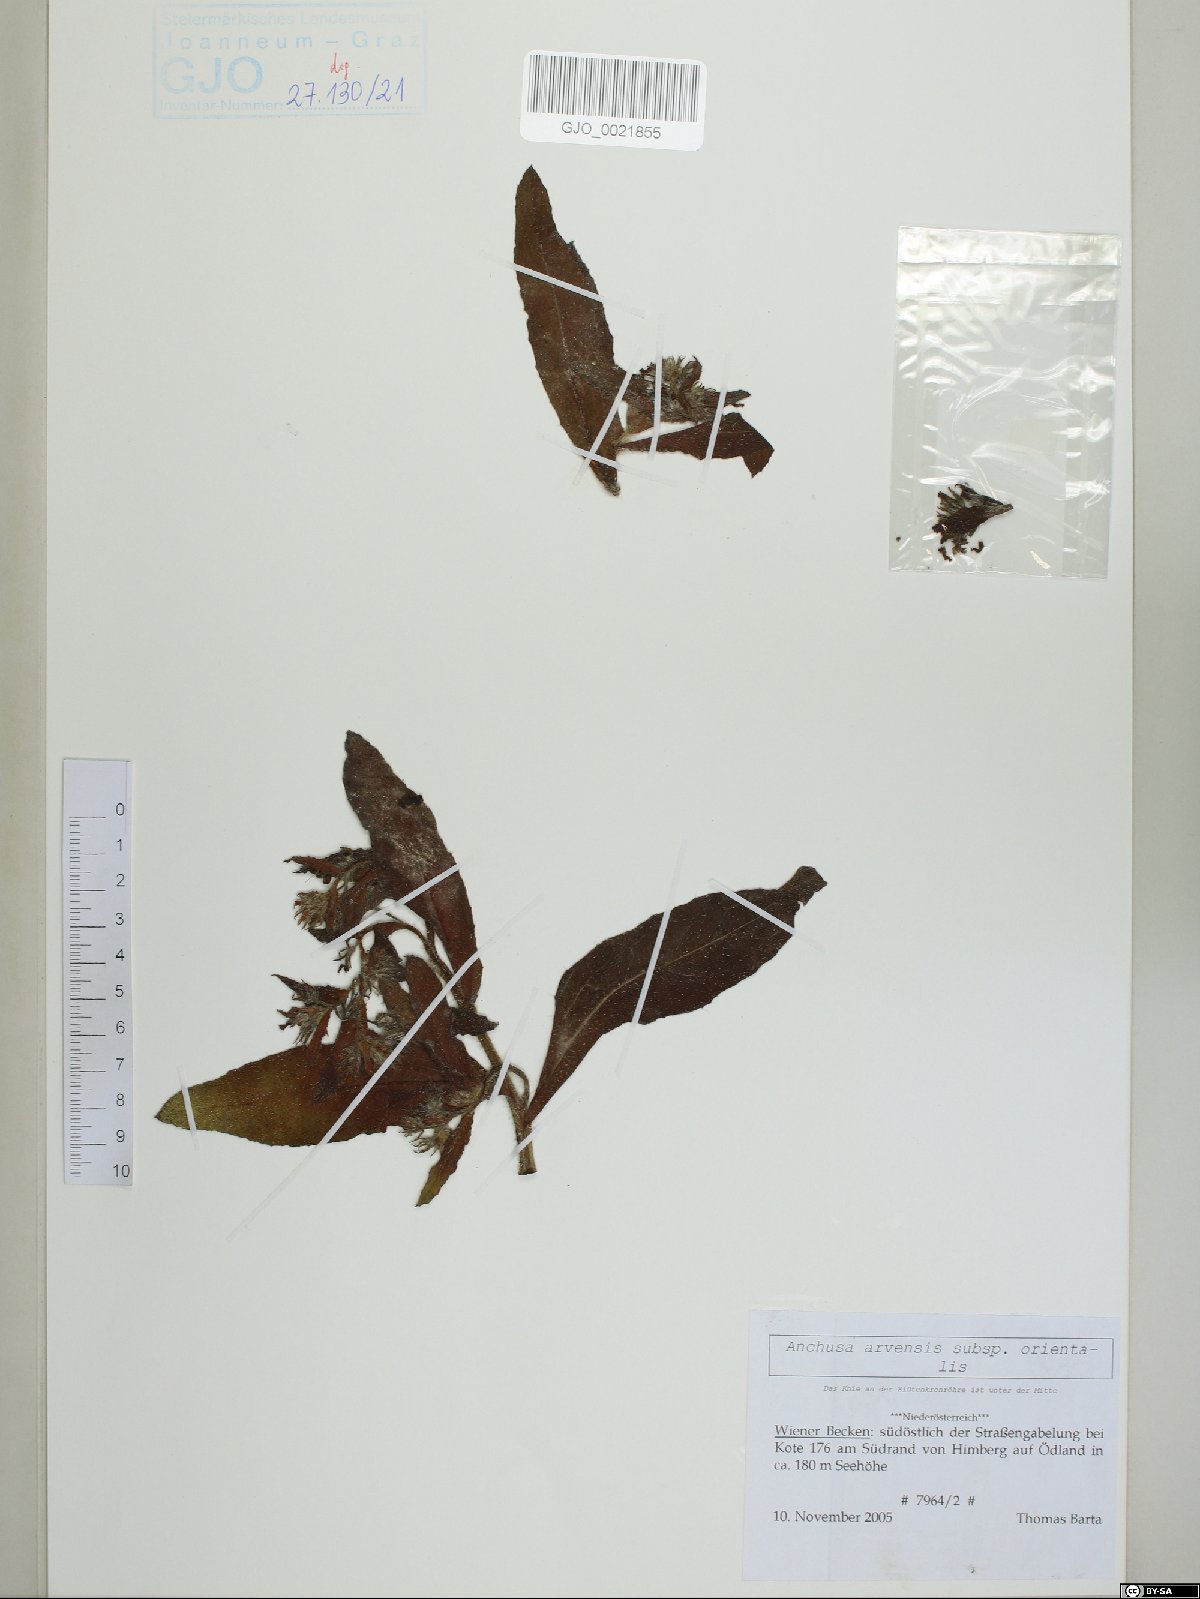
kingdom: Plantae
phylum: Tracheophyta
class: Magnoliopsida
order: Boraginales
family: Boraginaceae
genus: Lycopsis
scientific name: Lycopsis arvensis
